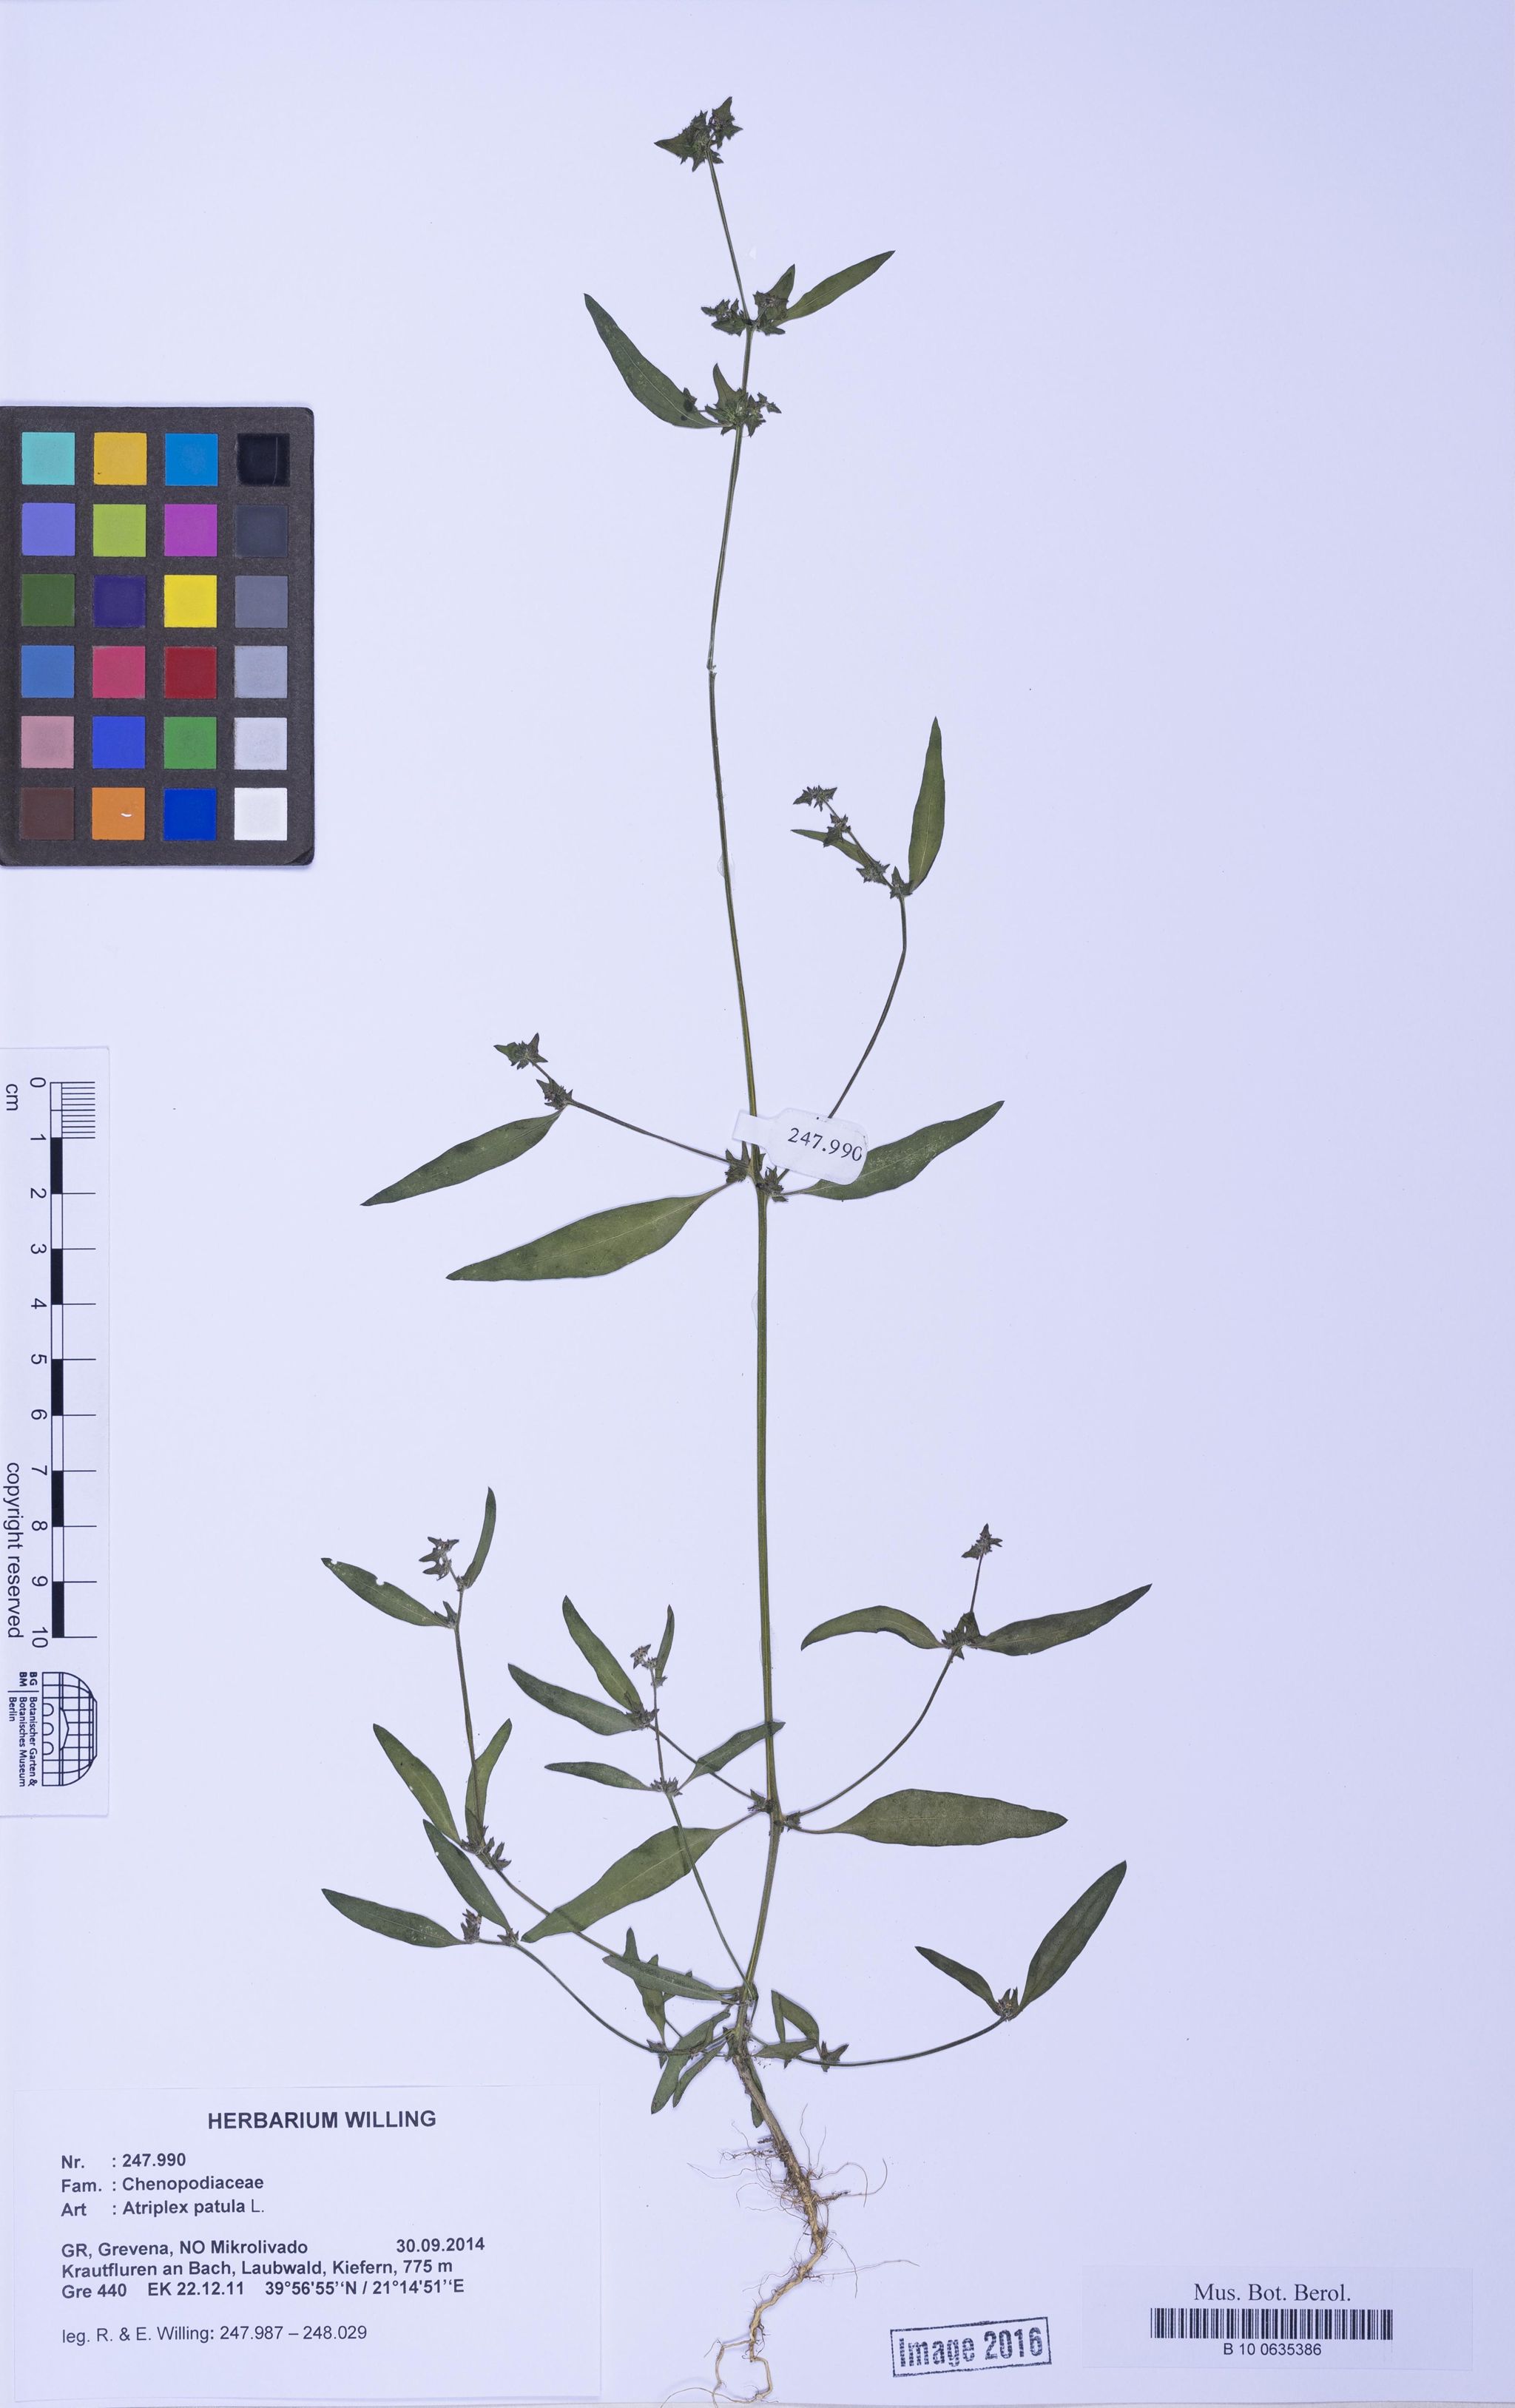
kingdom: Plantae
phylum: Tracheophyta
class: Magnoliopsida
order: Caryophyllales
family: Amaranthaceae
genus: Atriplex
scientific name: Atriplex patula
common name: Common orache
